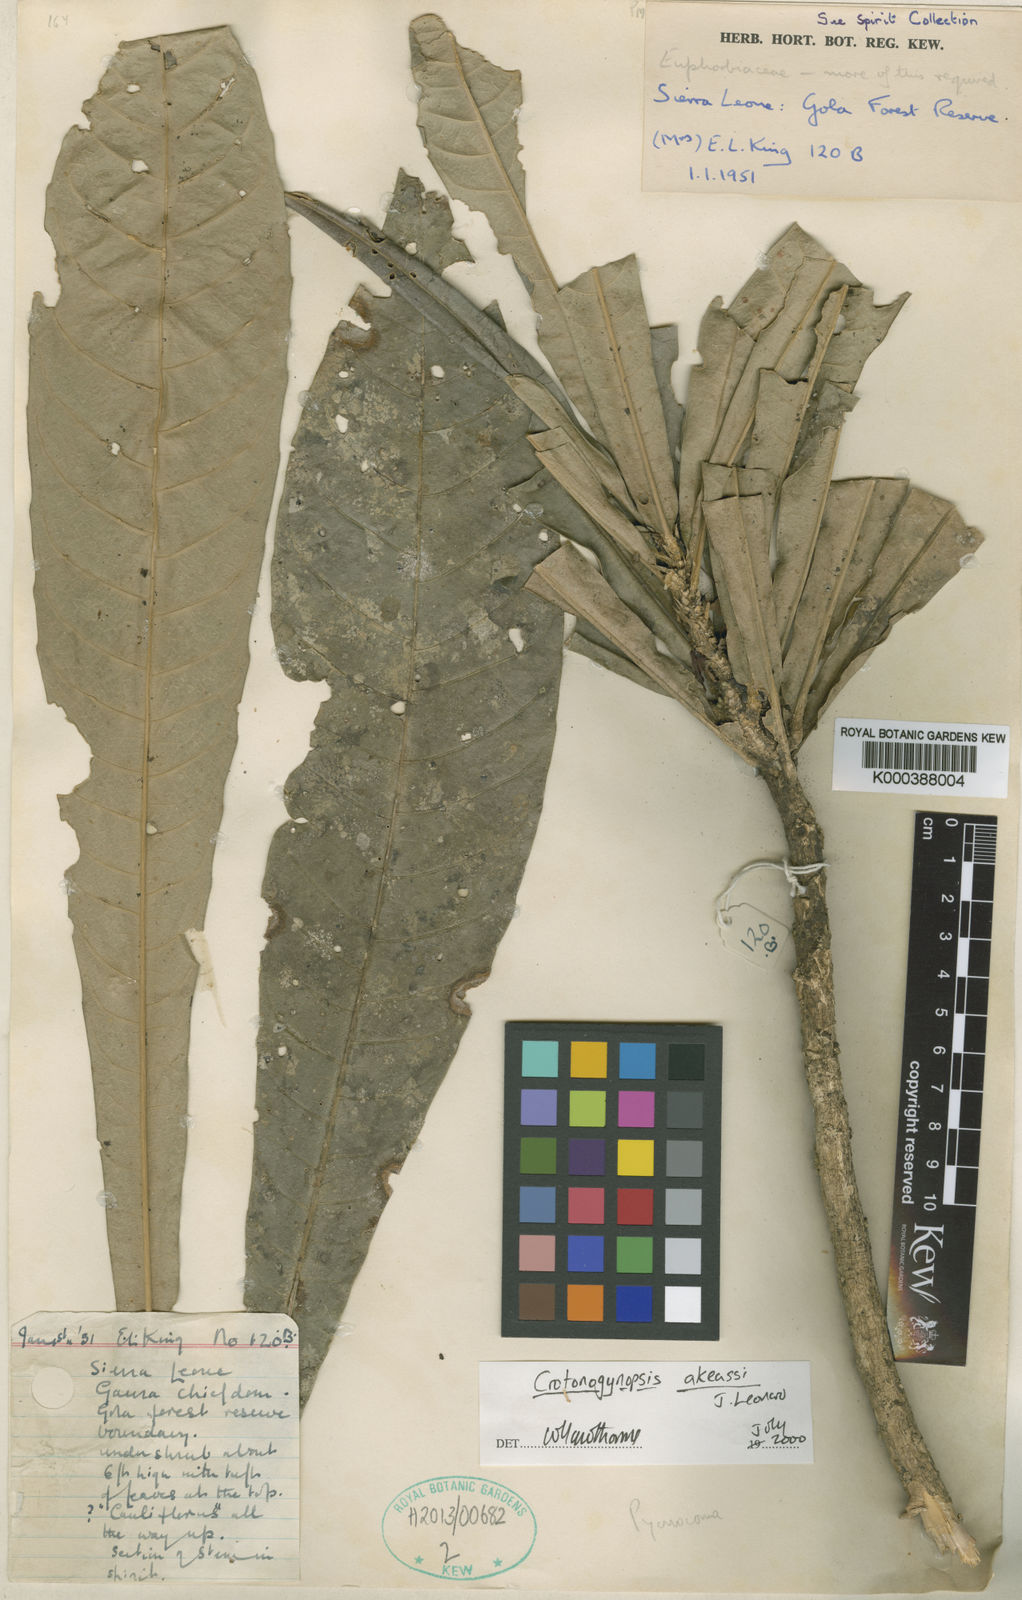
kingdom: Plantae
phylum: Tracheophyta
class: Magnoliopsida
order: Malpighiales
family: Euphorbiaceae
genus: Crotonogynopsis
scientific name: Crotonogynopsis akeassii
